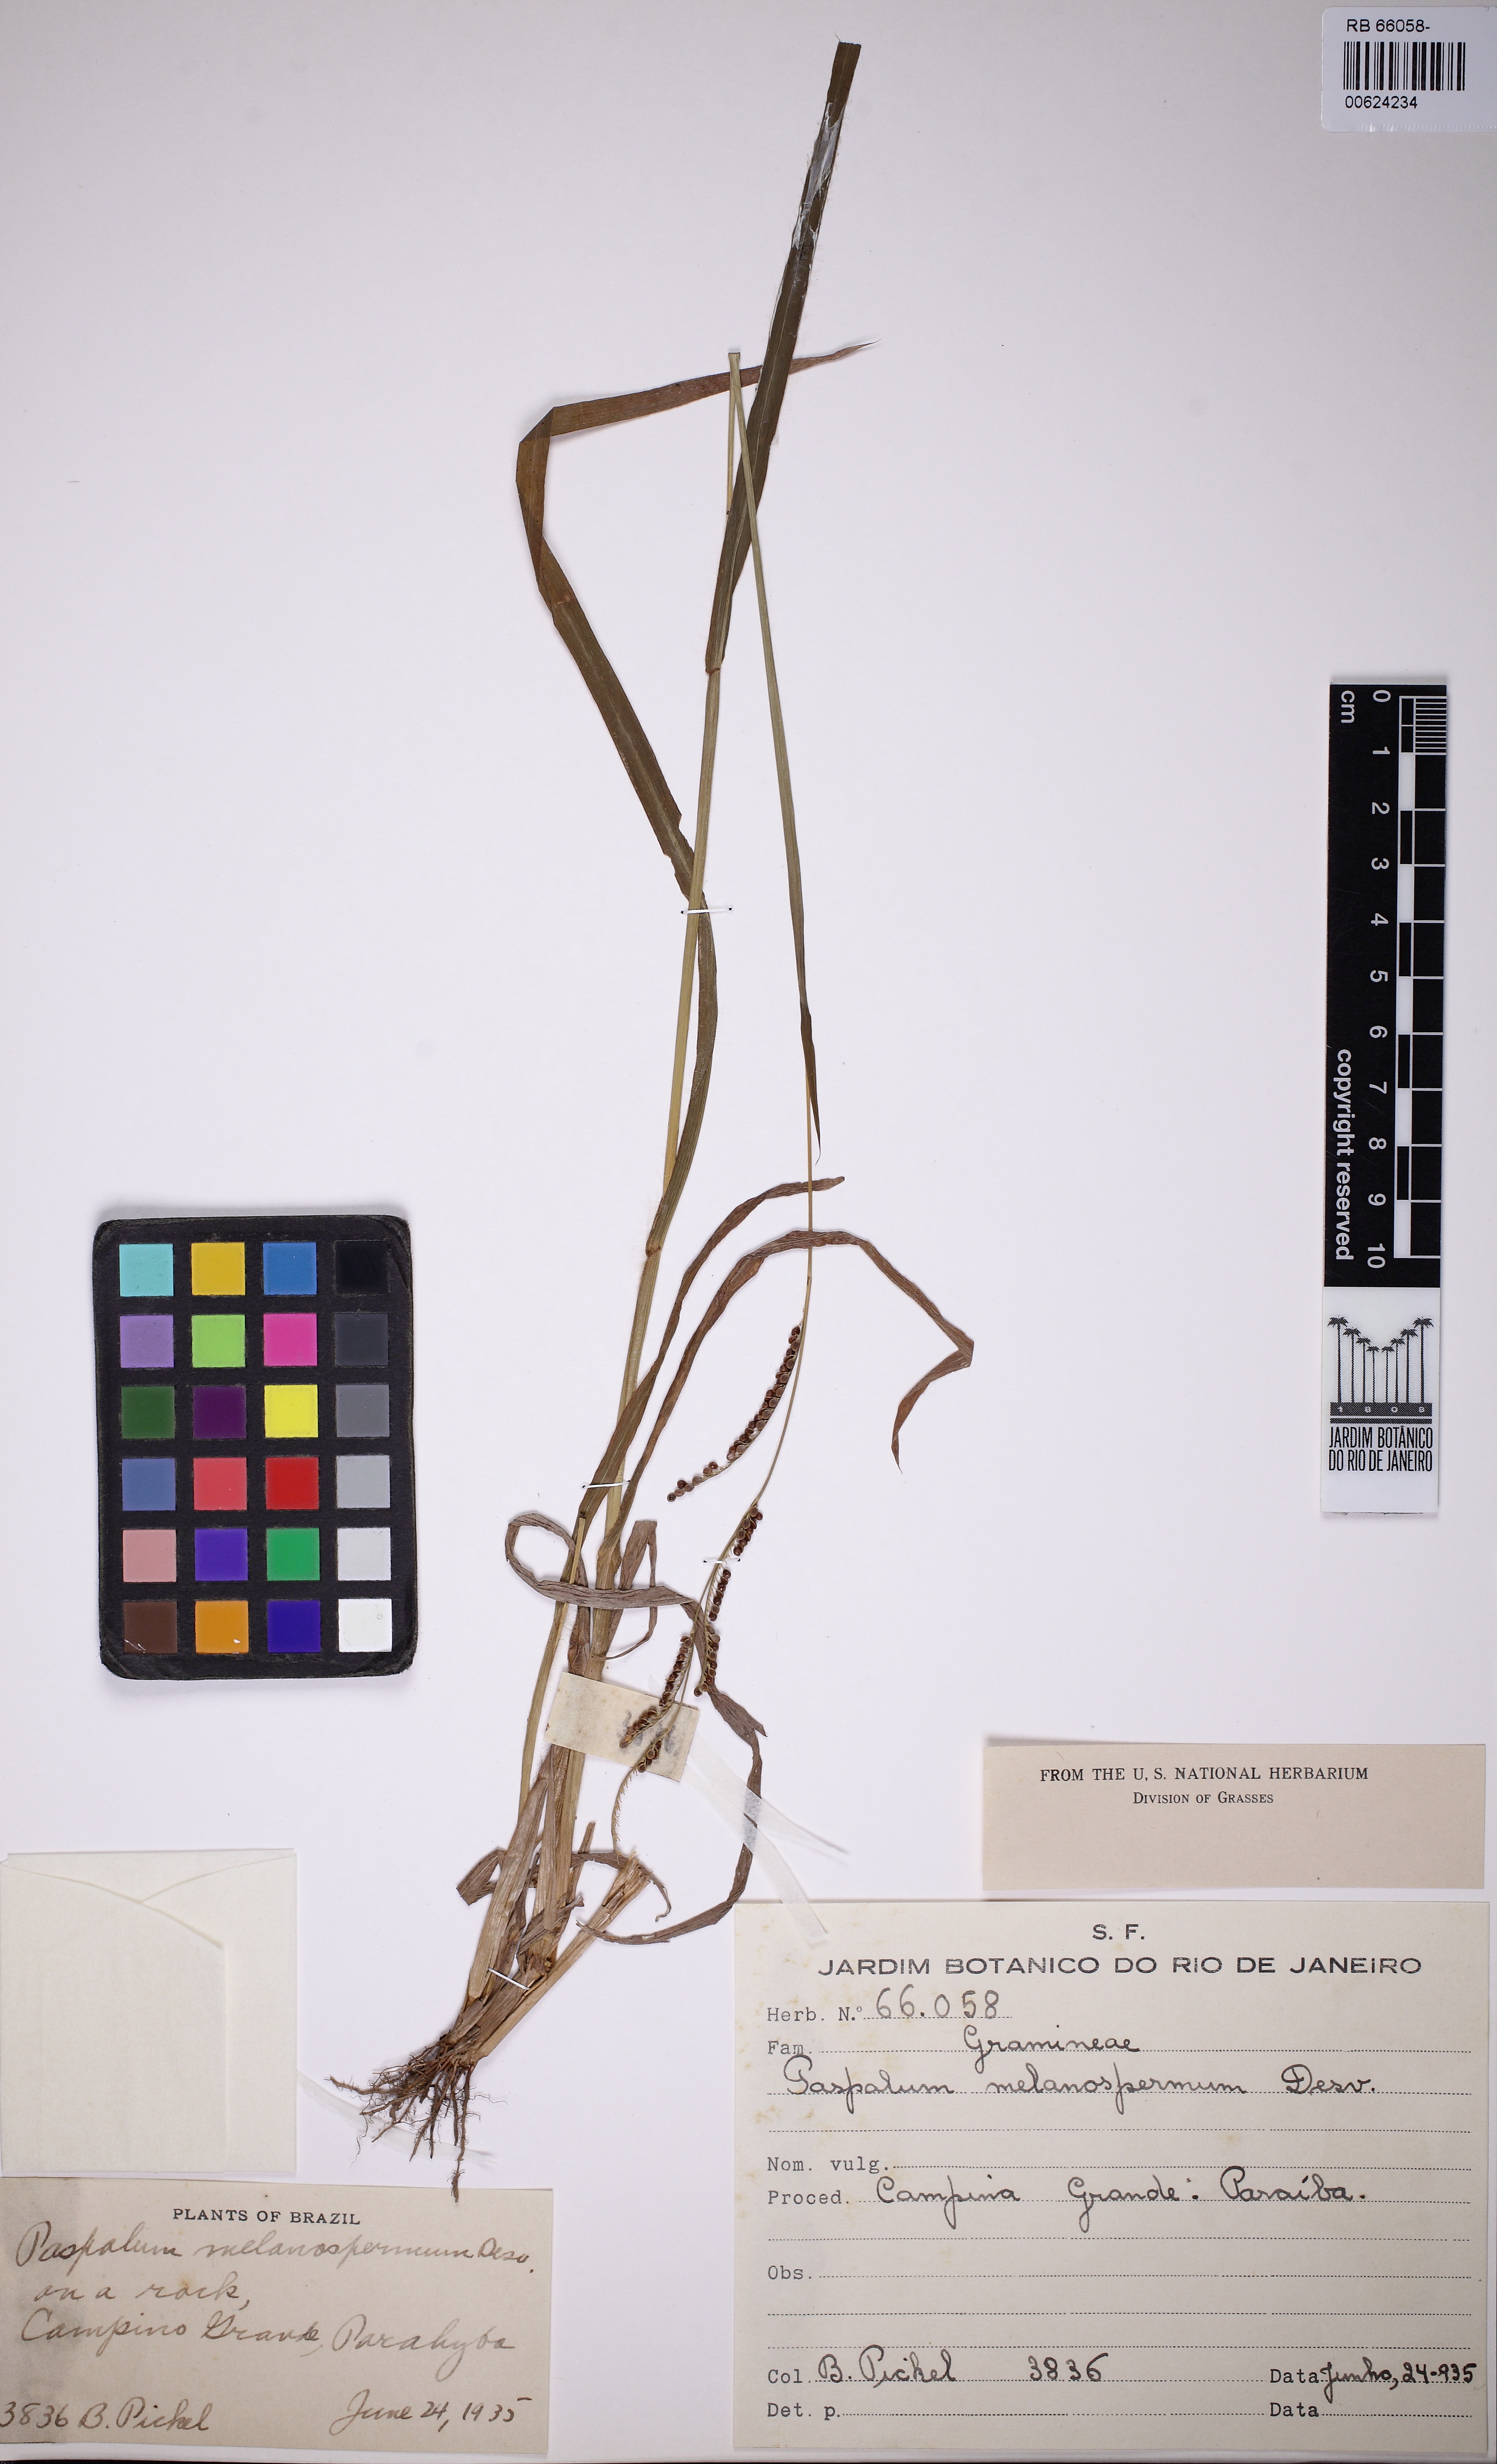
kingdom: Plantae
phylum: Tracheophyta
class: Liliopsida
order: Poales
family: Poaceae
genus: Paspalum
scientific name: Paspalum melanospermum
